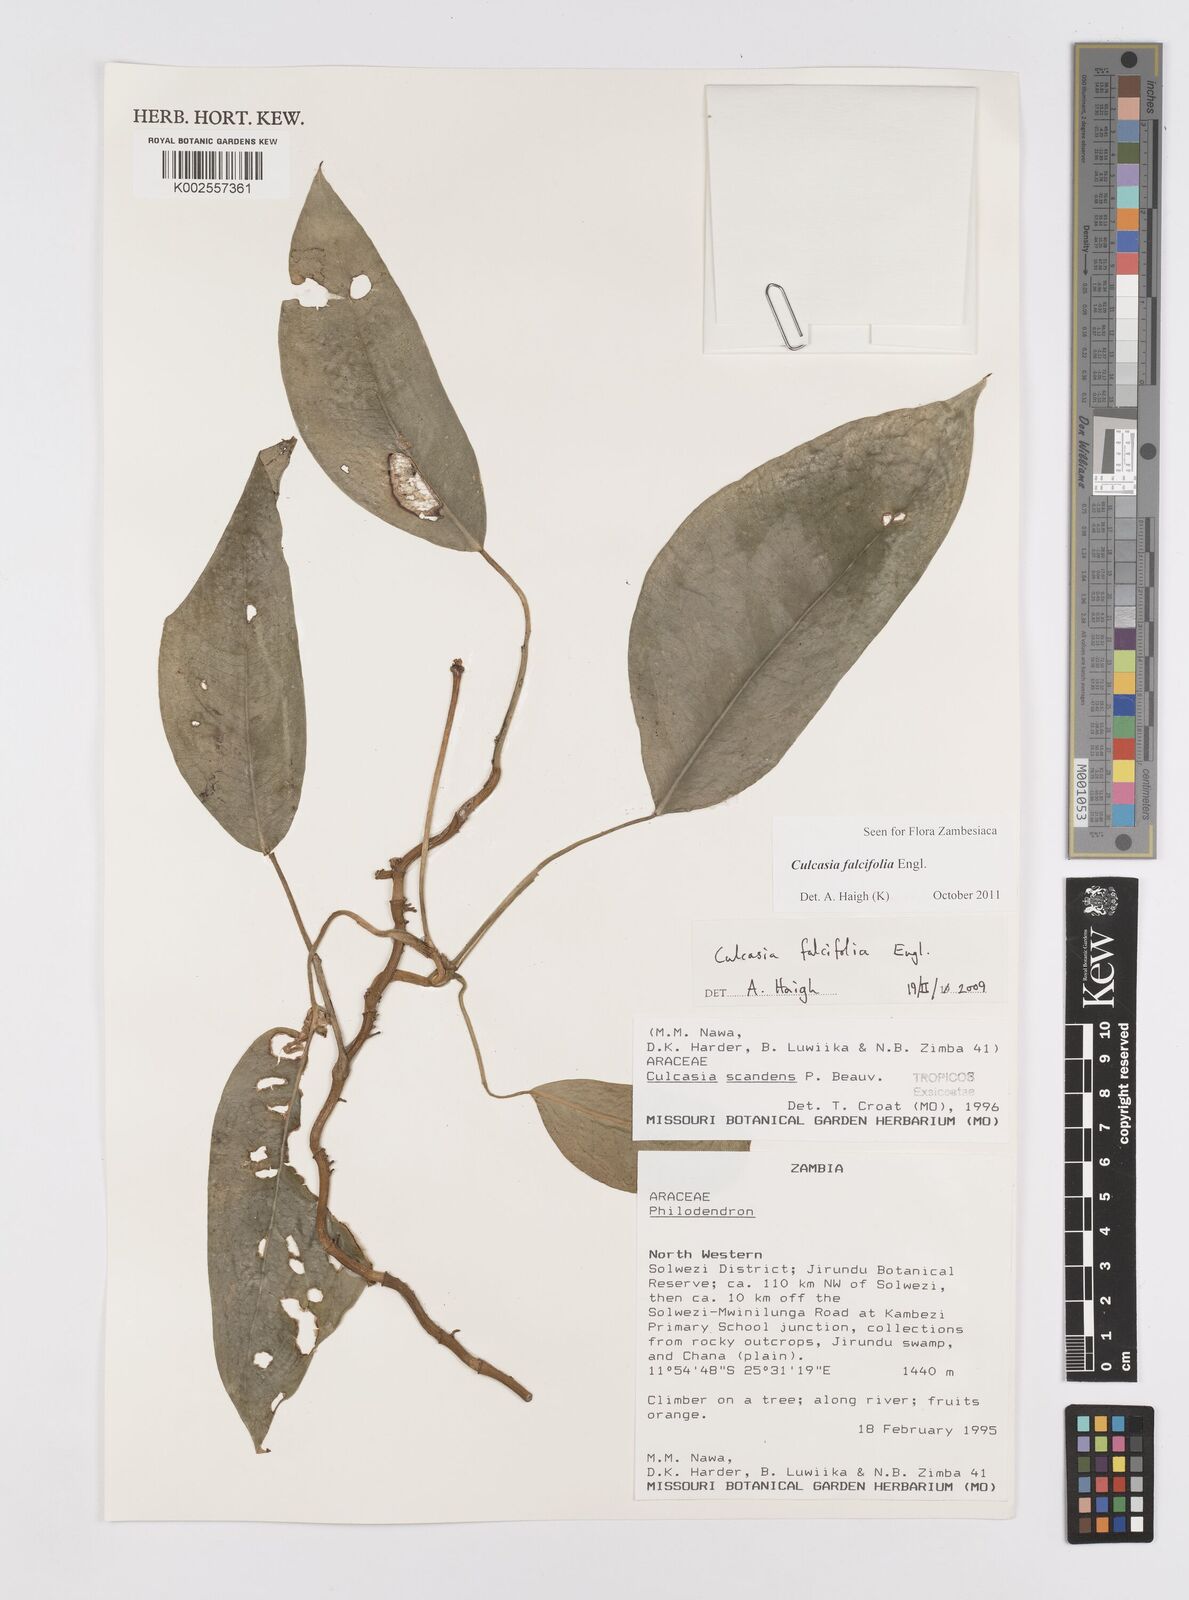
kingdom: Plantae
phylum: Tracheophyta
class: Liliopsida
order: Alismatales
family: Araceae
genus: Culcasia
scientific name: Culcasia falcifolia
